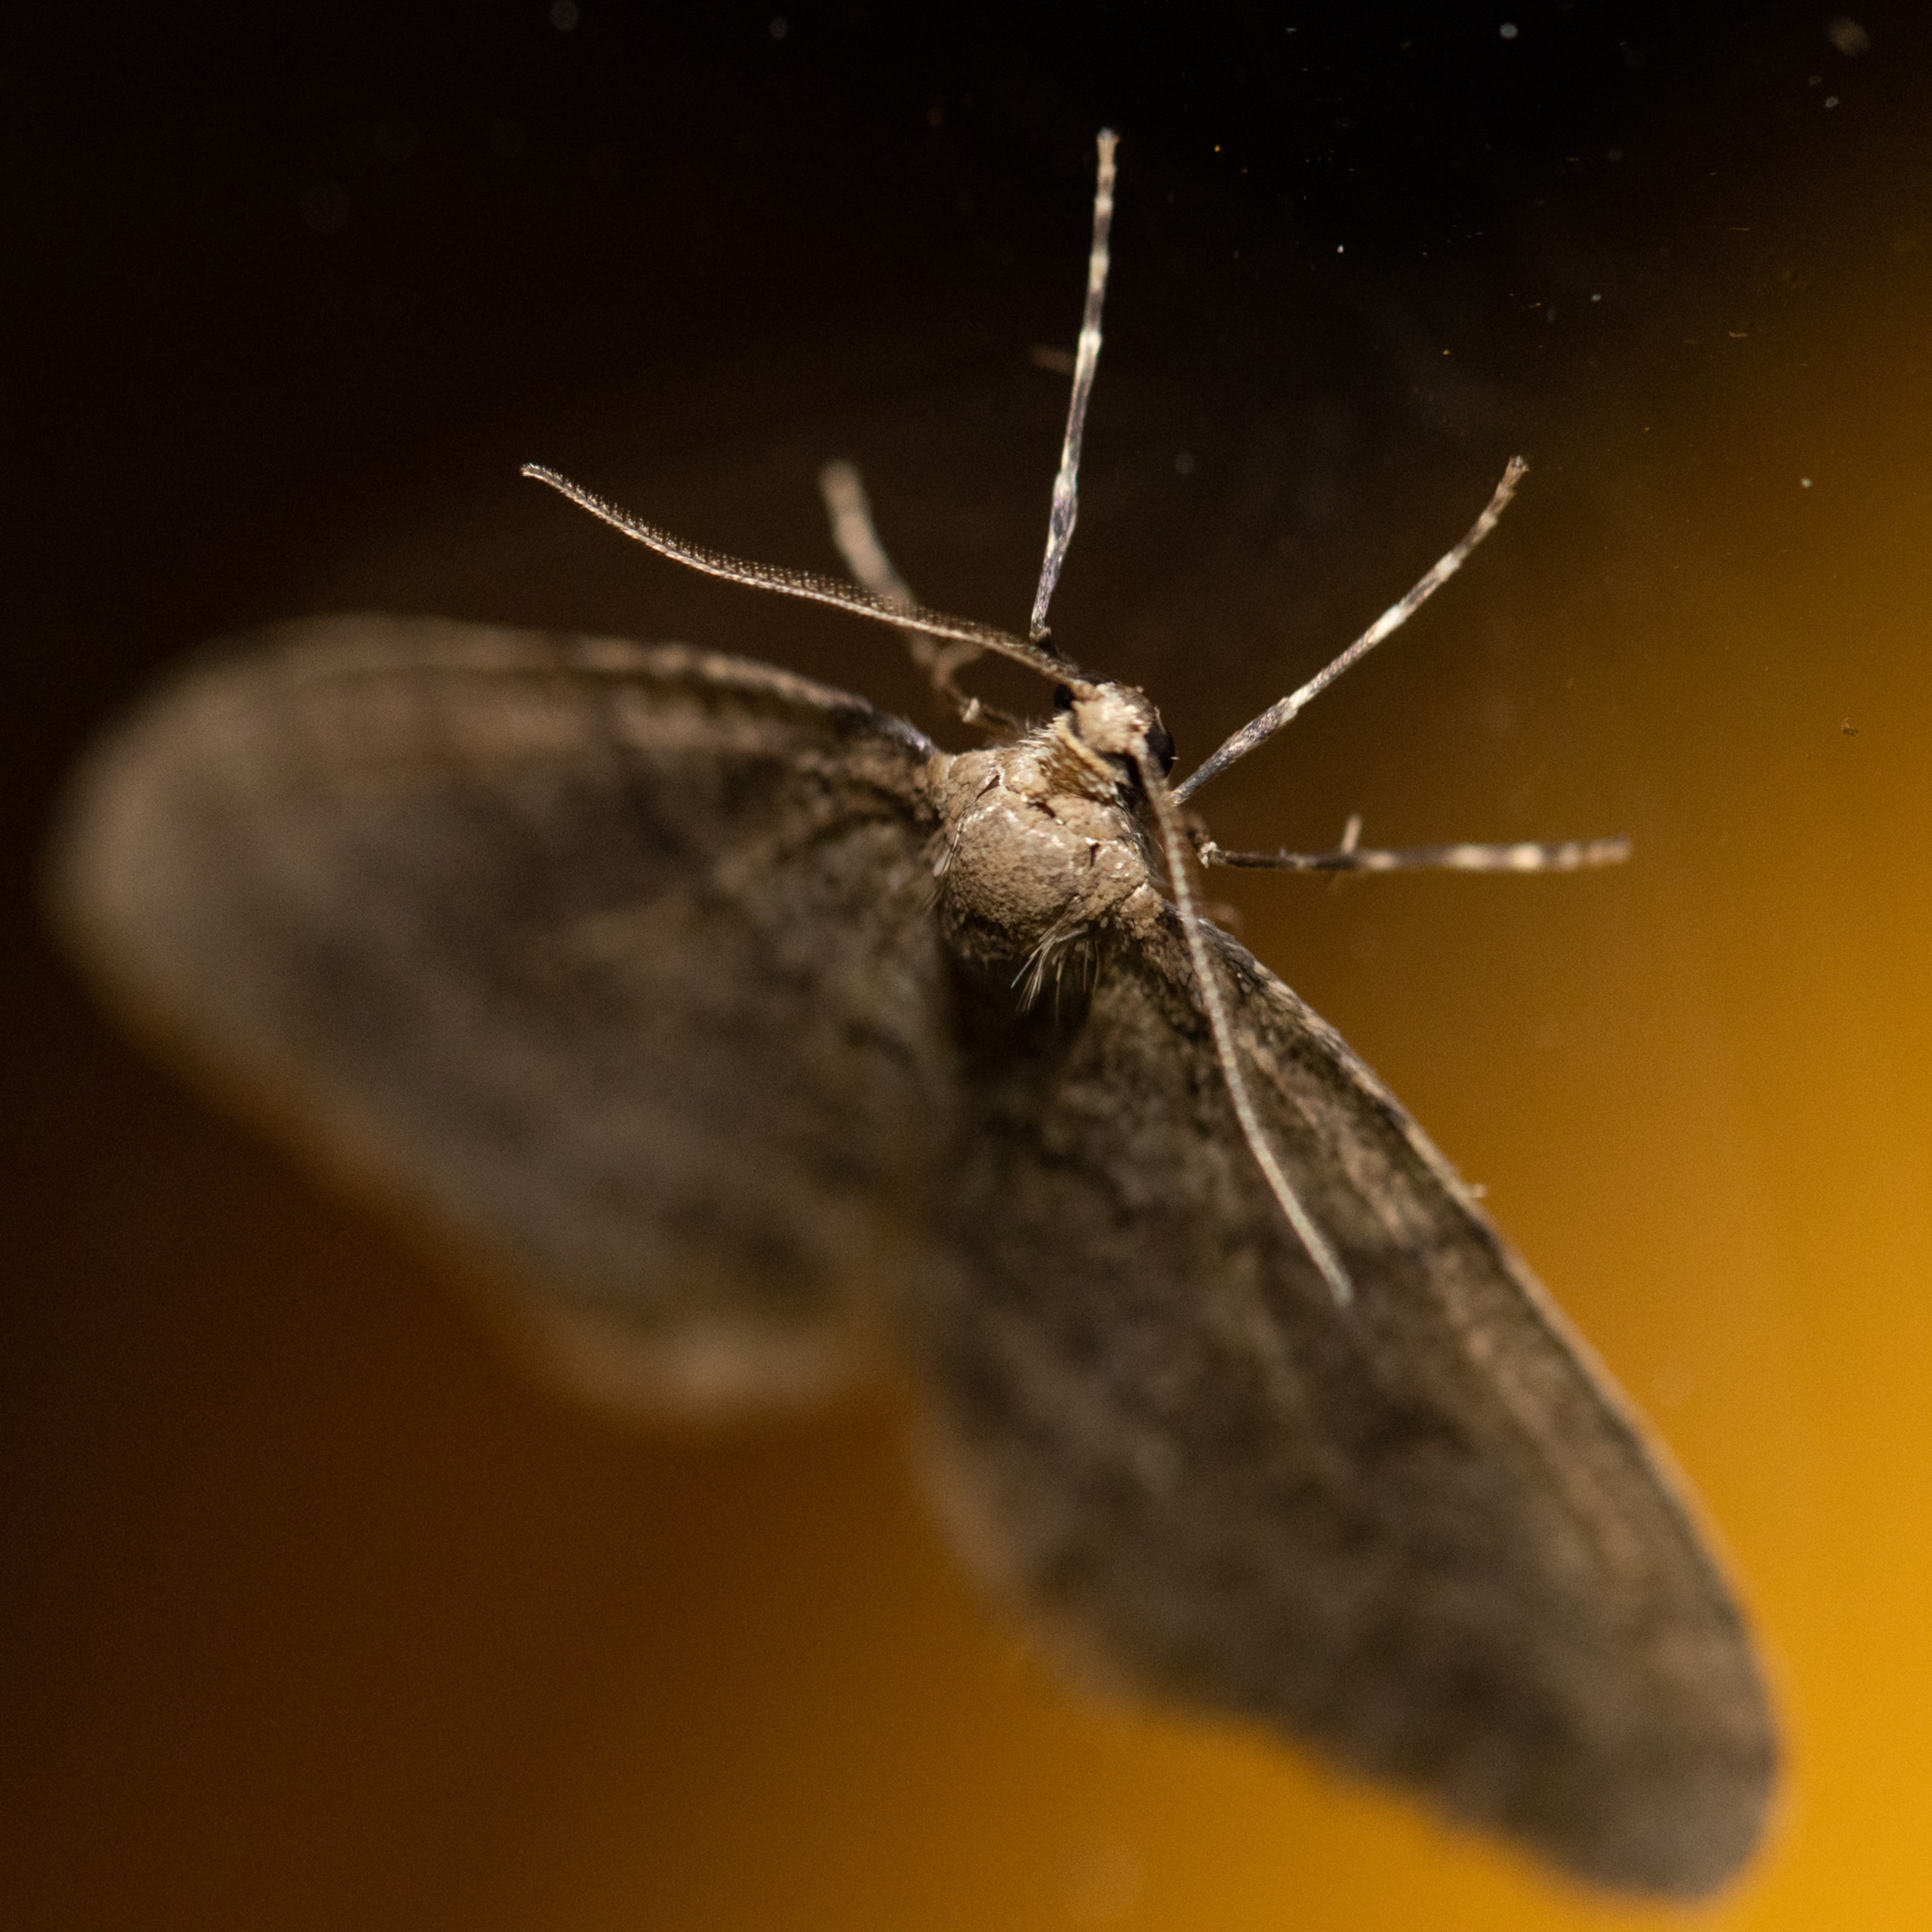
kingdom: Animalia
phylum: Arthropoda
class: Insecta
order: Lepidoptera
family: Geometridae
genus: Operophtera
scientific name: Operophtera brumata
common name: Lille frostmåler
